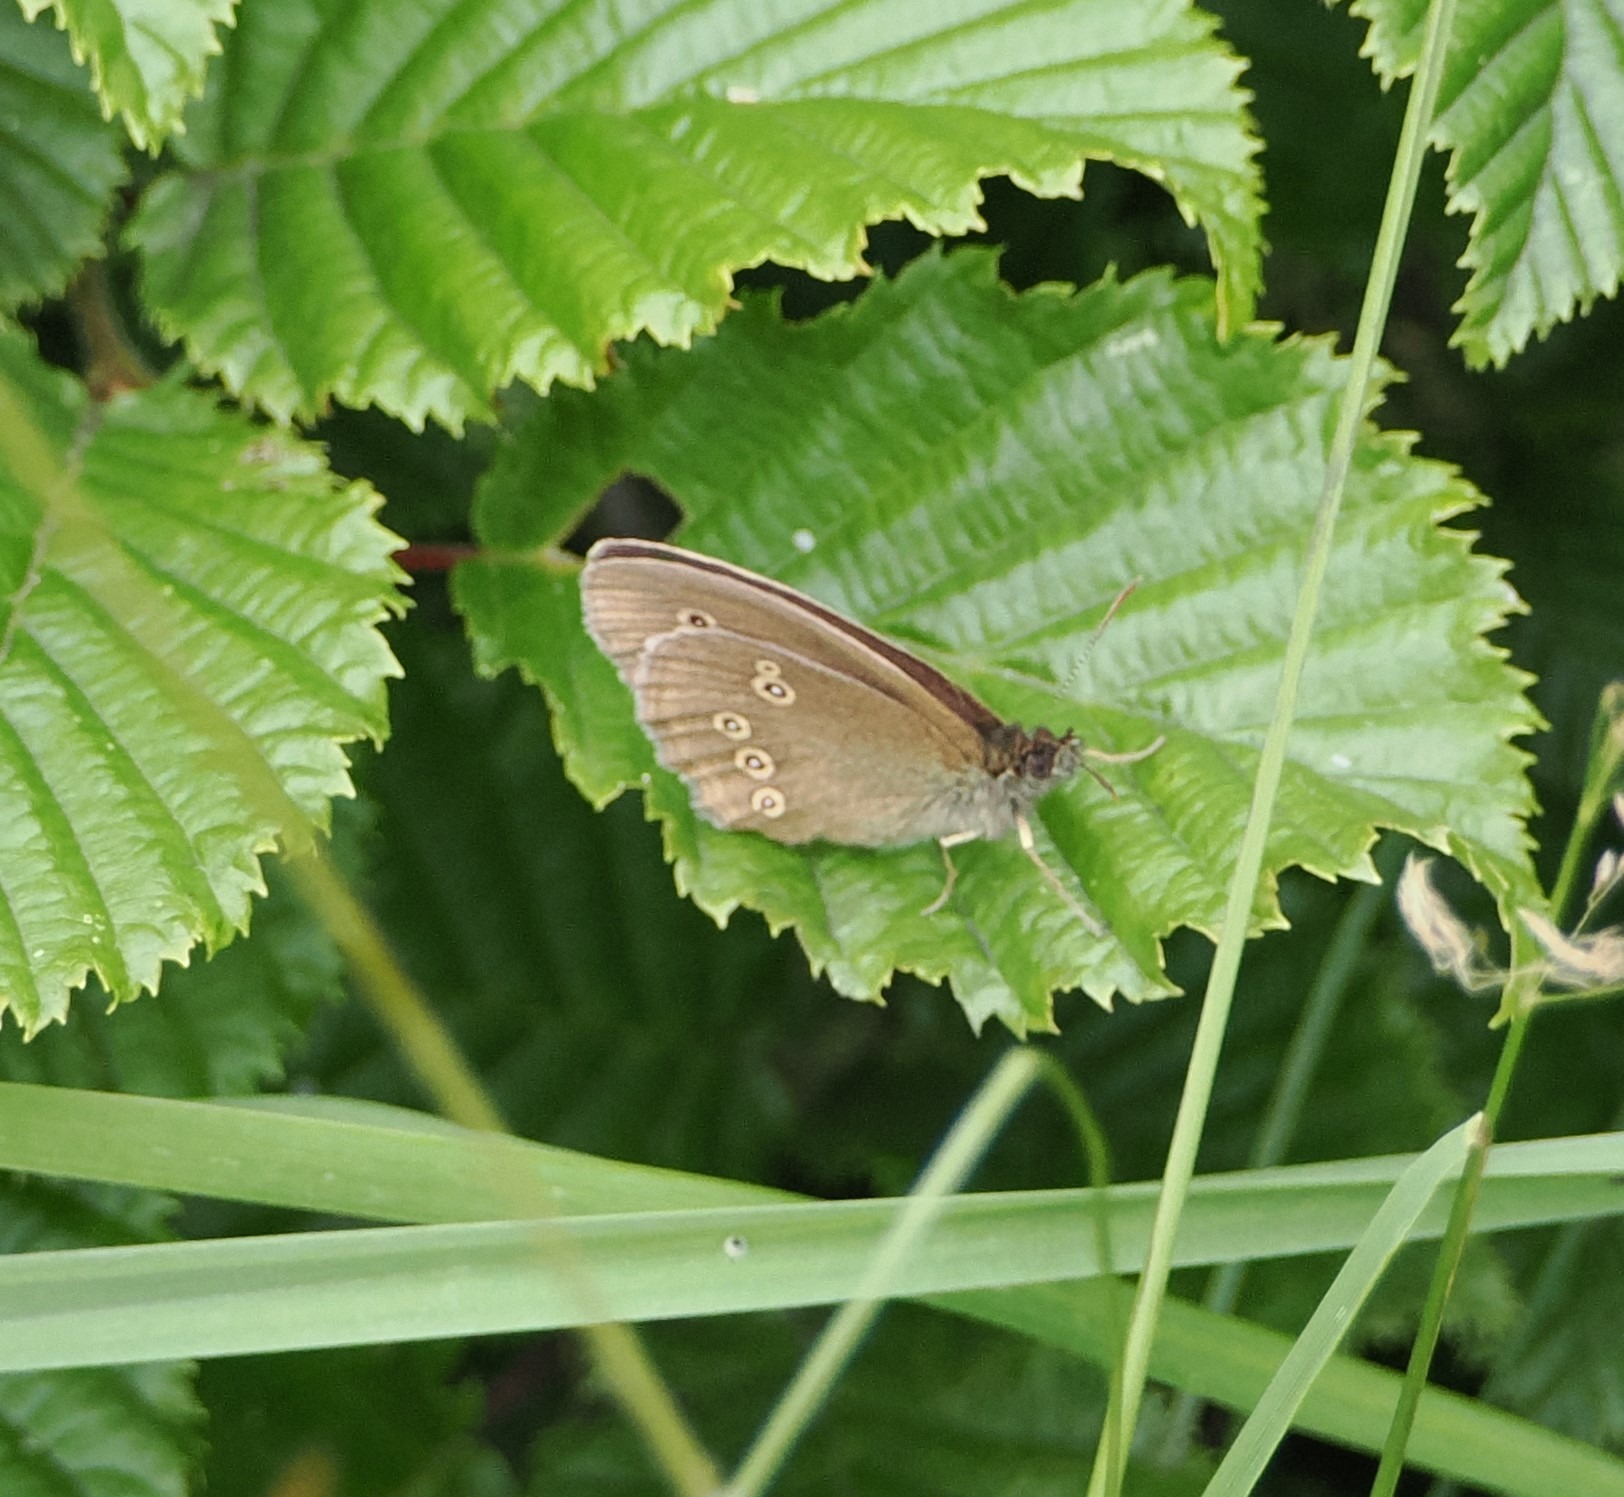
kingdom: Animalia
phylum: Arthropoda
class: Insecta
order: Lepidoptera
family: Nymphalidae
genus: Aphantopus
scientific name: Aphantopus hyperantus
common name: Engrandøje
